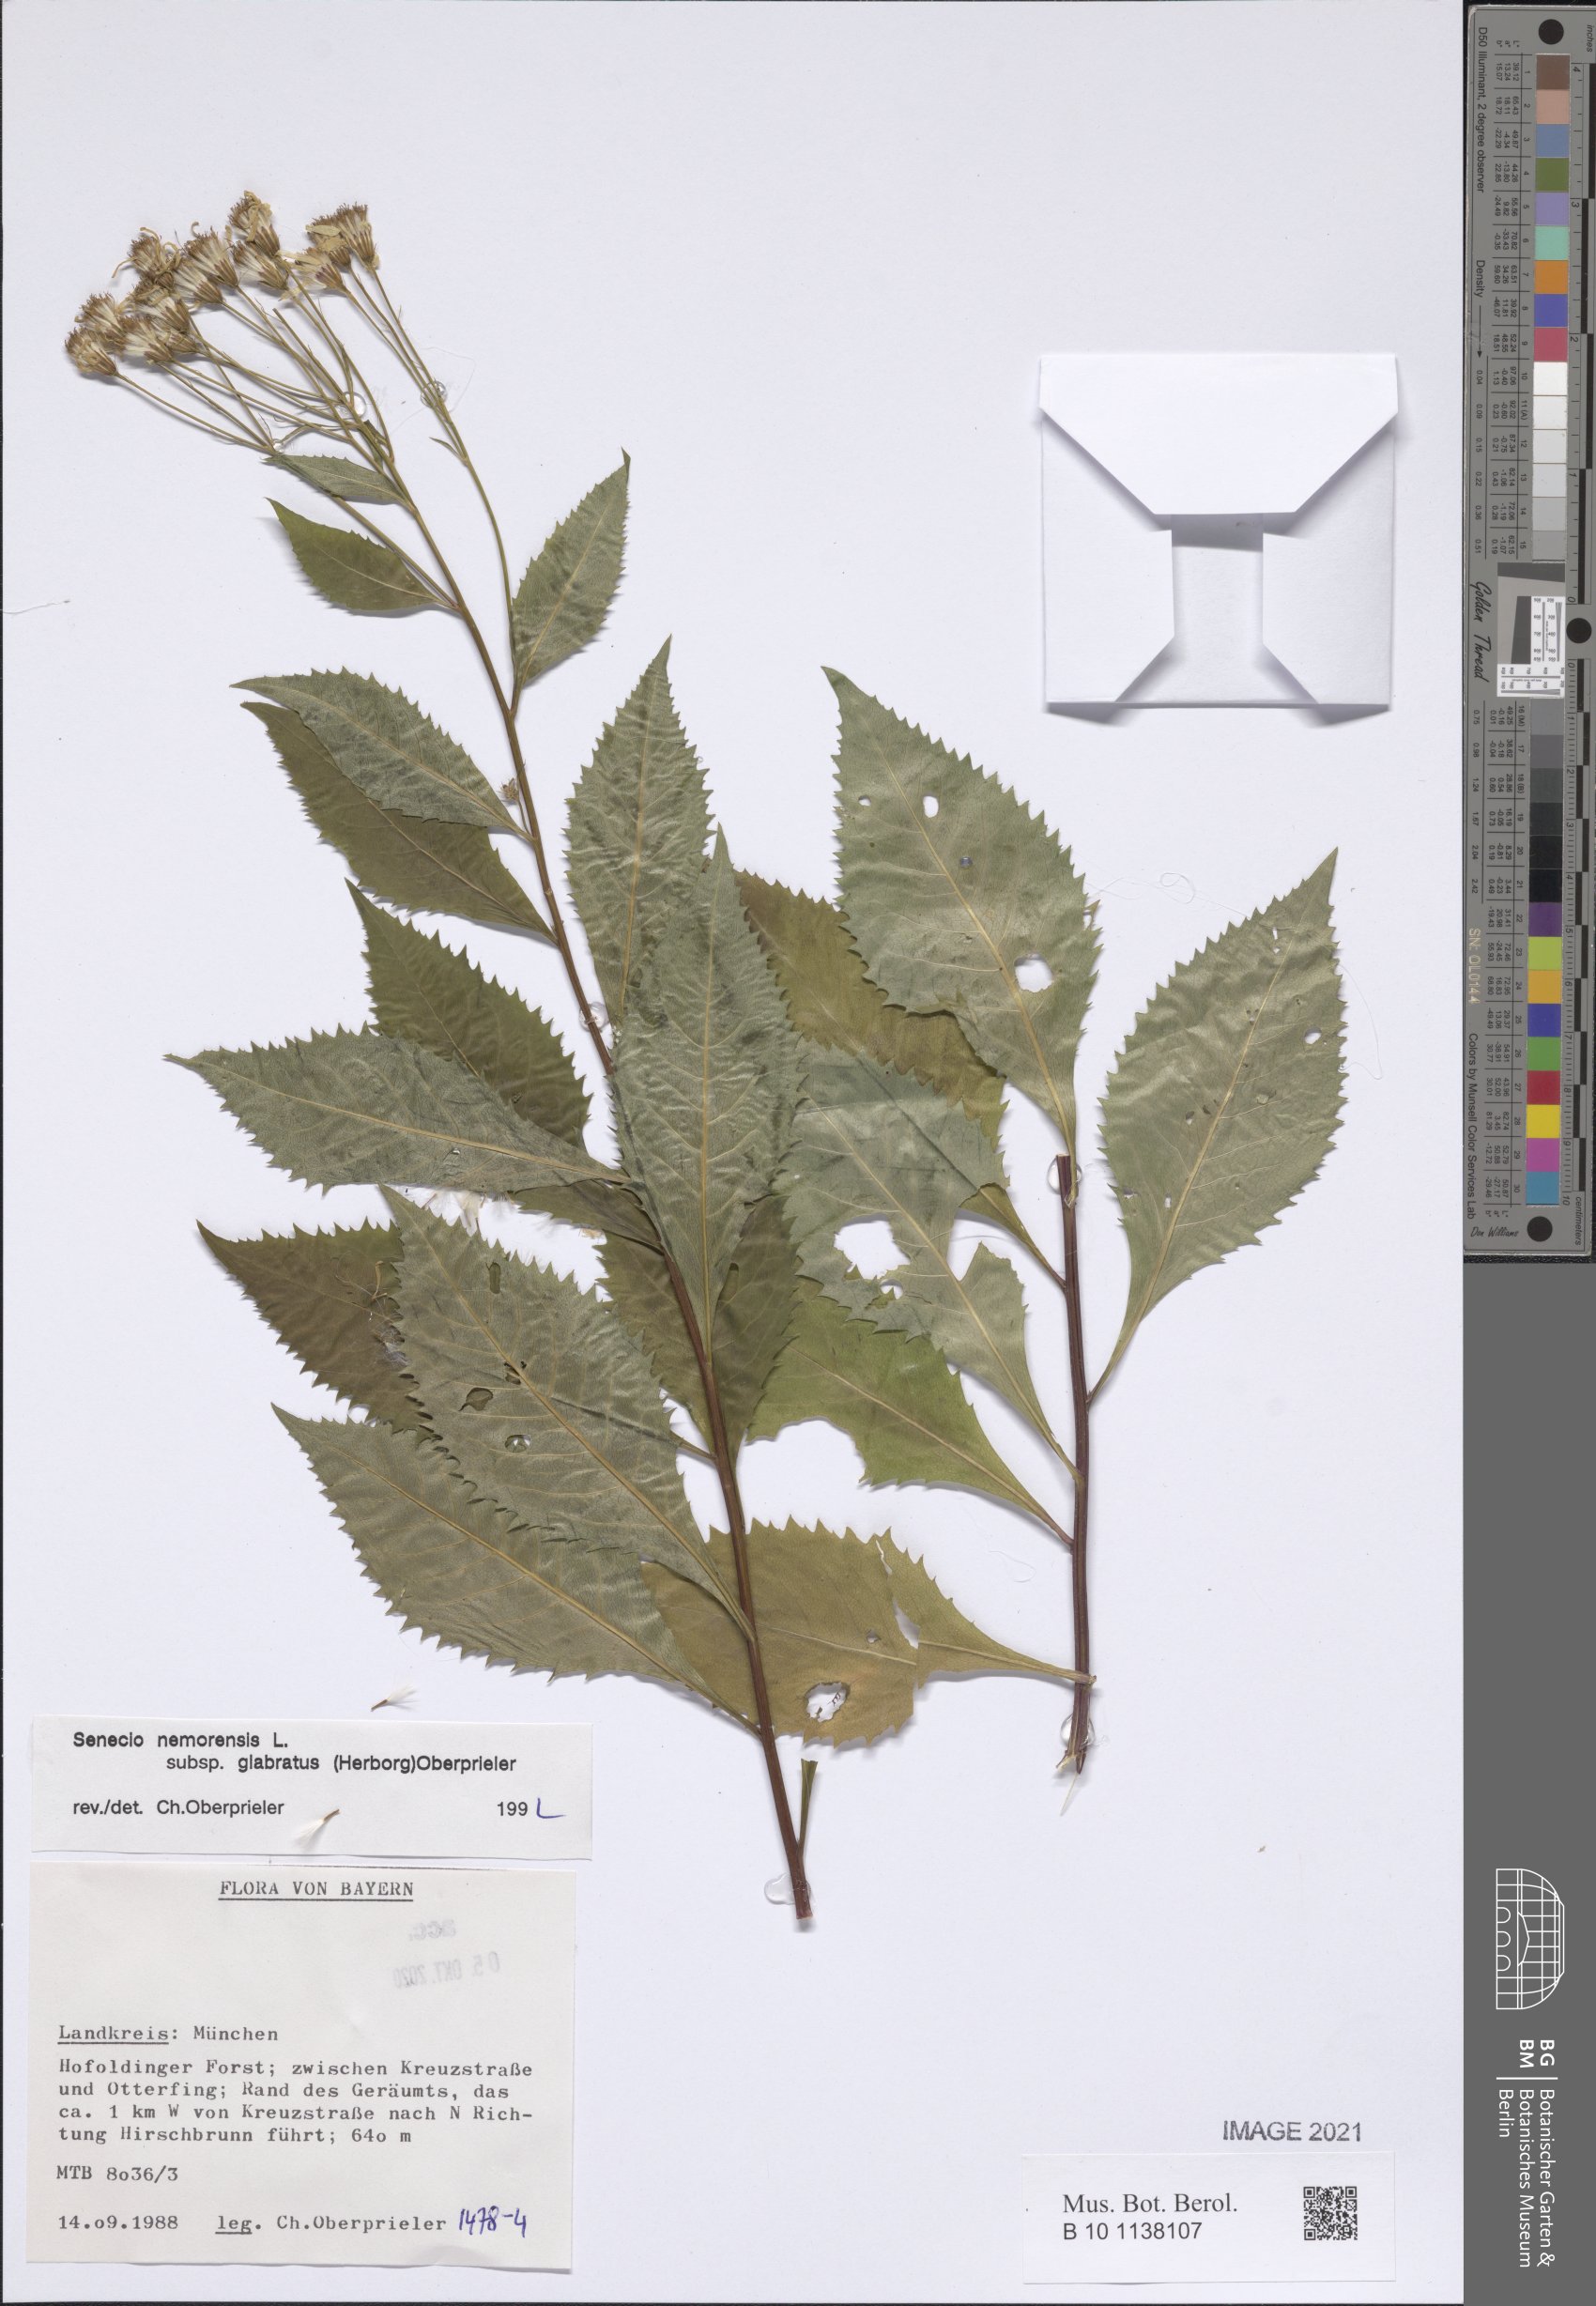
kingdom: Plantae
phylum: Tracheophyta
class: Magnoliopsida
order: Asterales
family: Asteraceae
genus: Senecio
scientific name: Senecio germanicus
